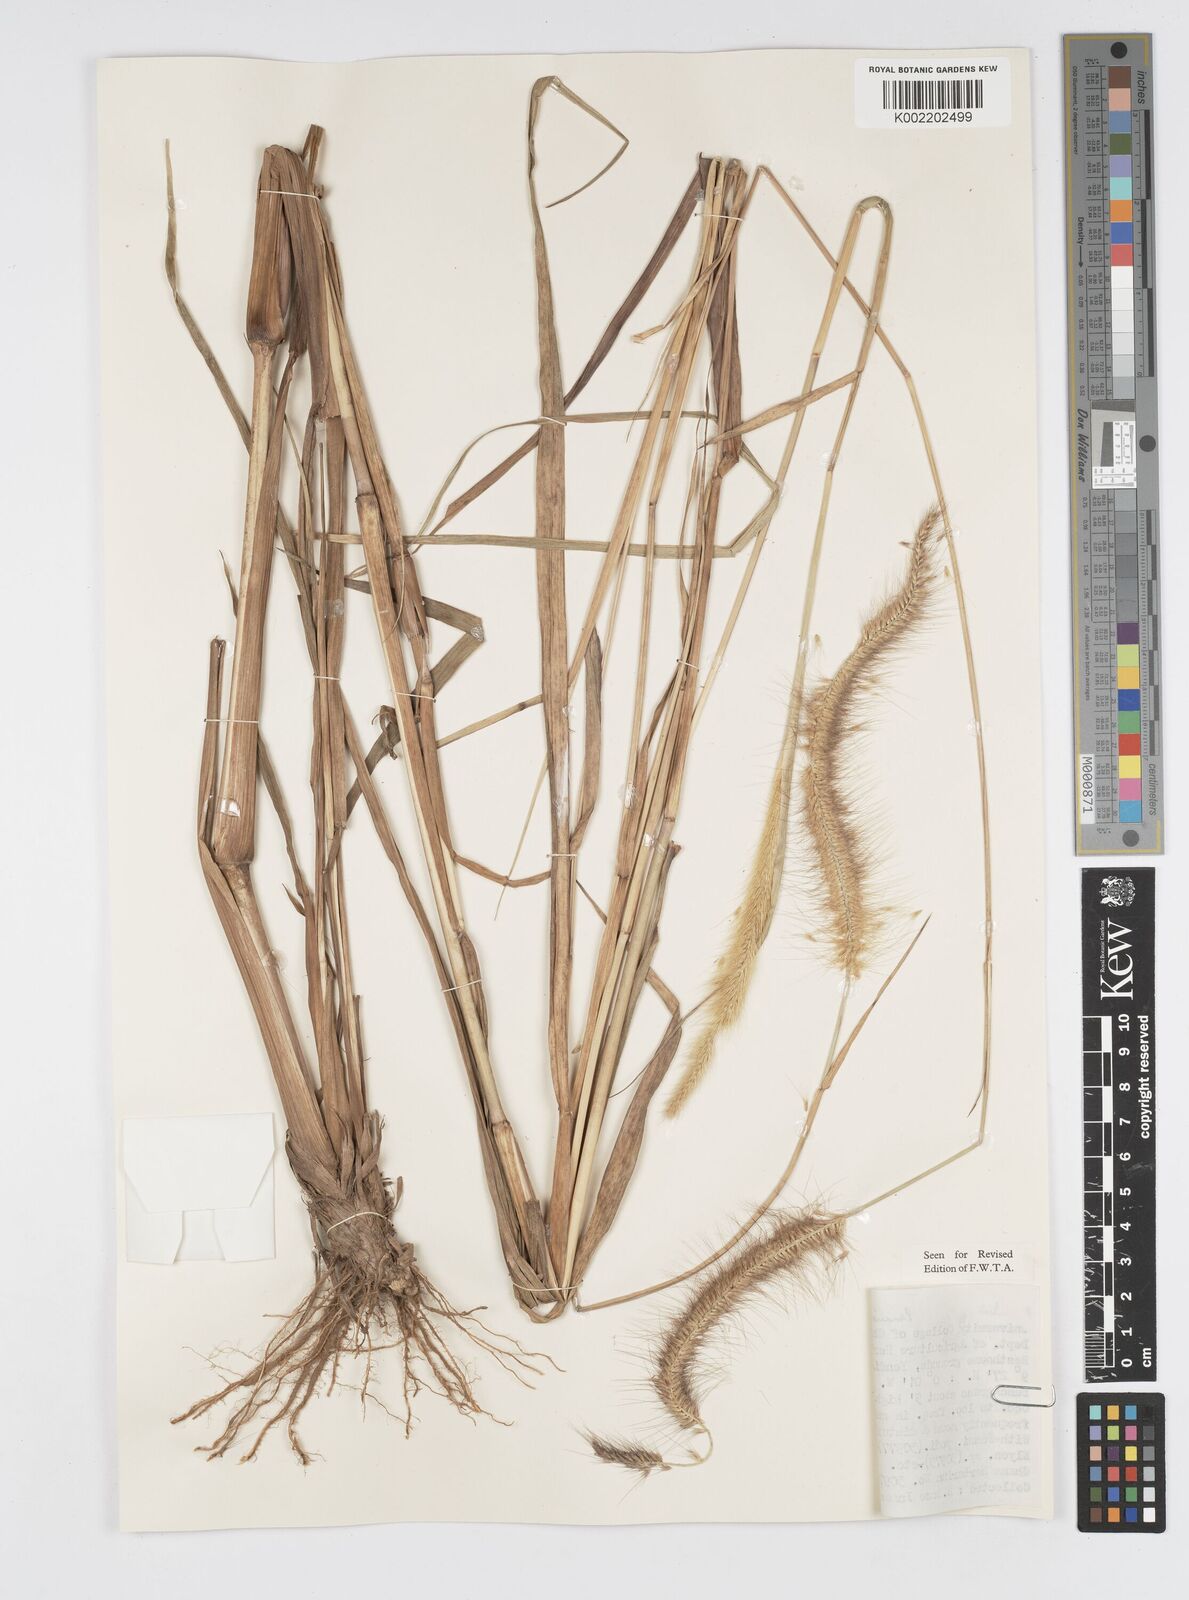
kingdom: Plantae
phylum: Tracheophyta
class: Liliopsida
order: Poales
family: Poaceae
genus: Setaria
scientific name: Setaria parviflora
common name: Knotroot bristle-grass
